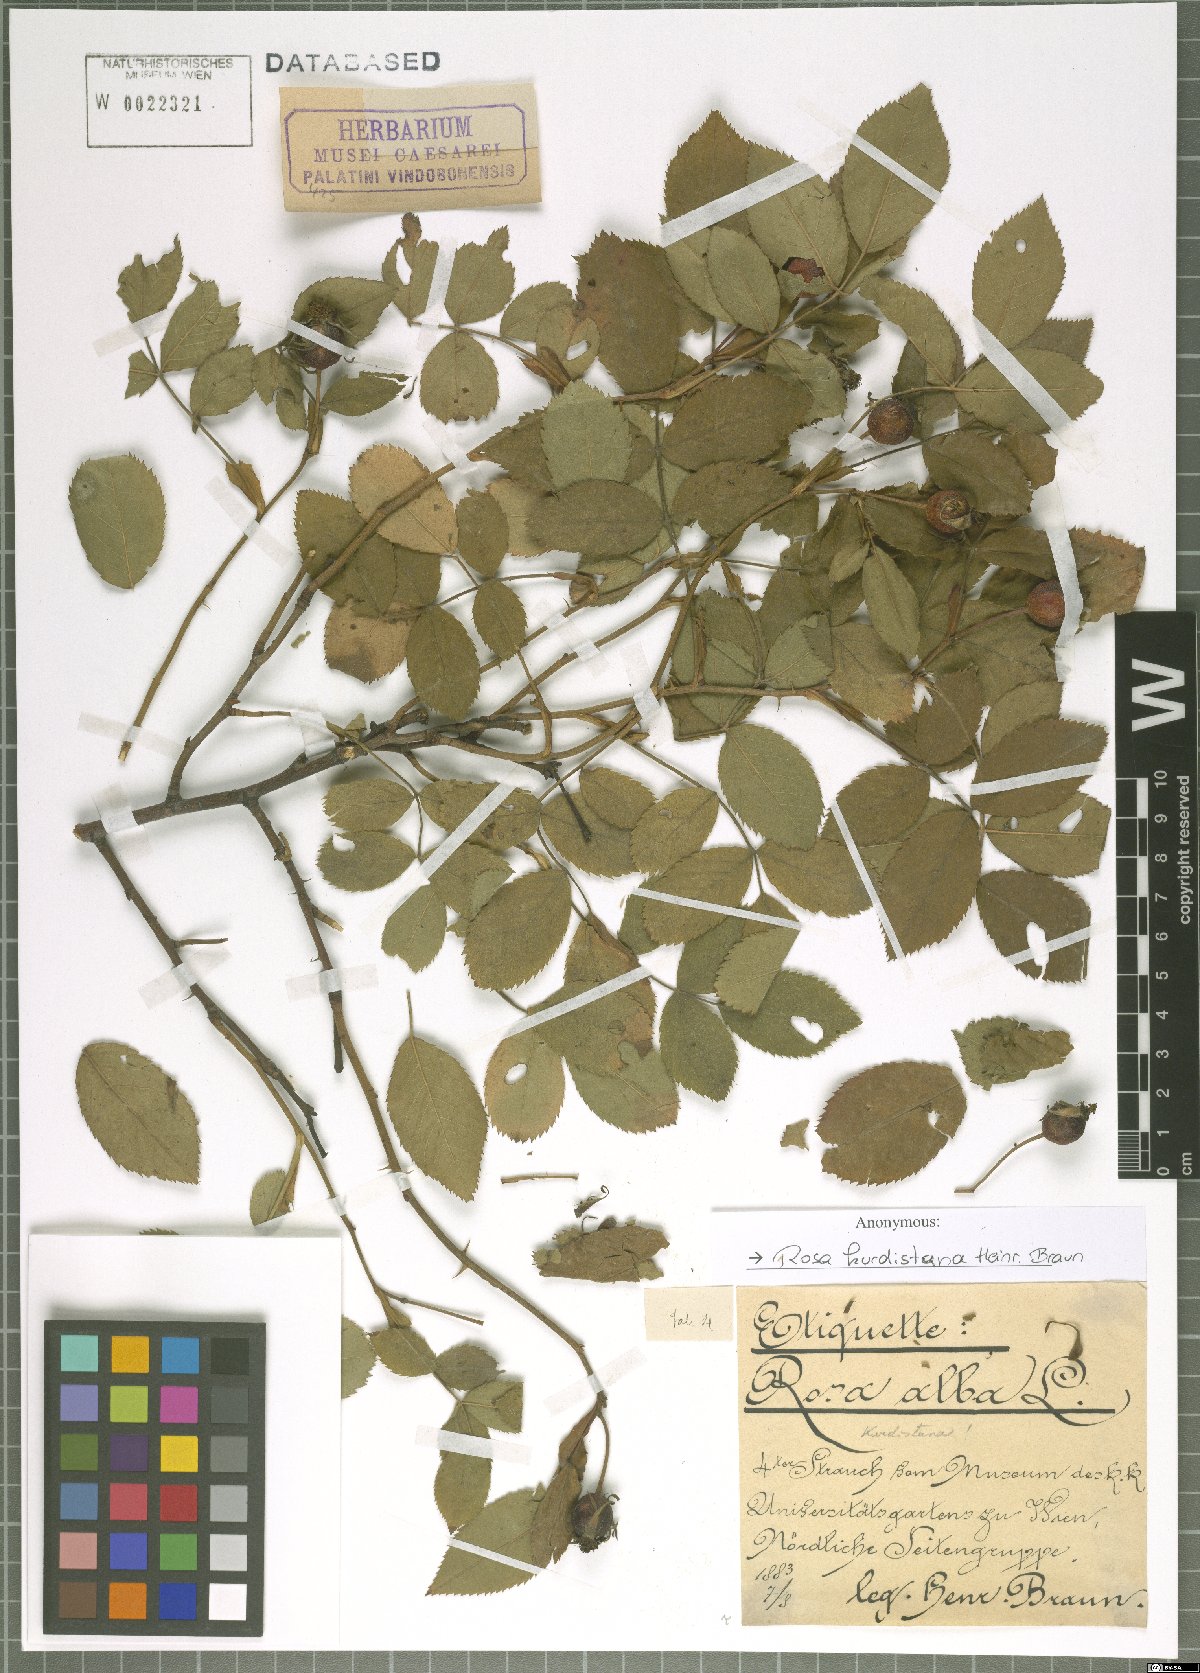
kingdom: Plantae
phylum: Tracheophyta
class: Magnoliopsida
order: Rosales
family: Rosaceae
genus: Rosa
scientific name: Rosa
